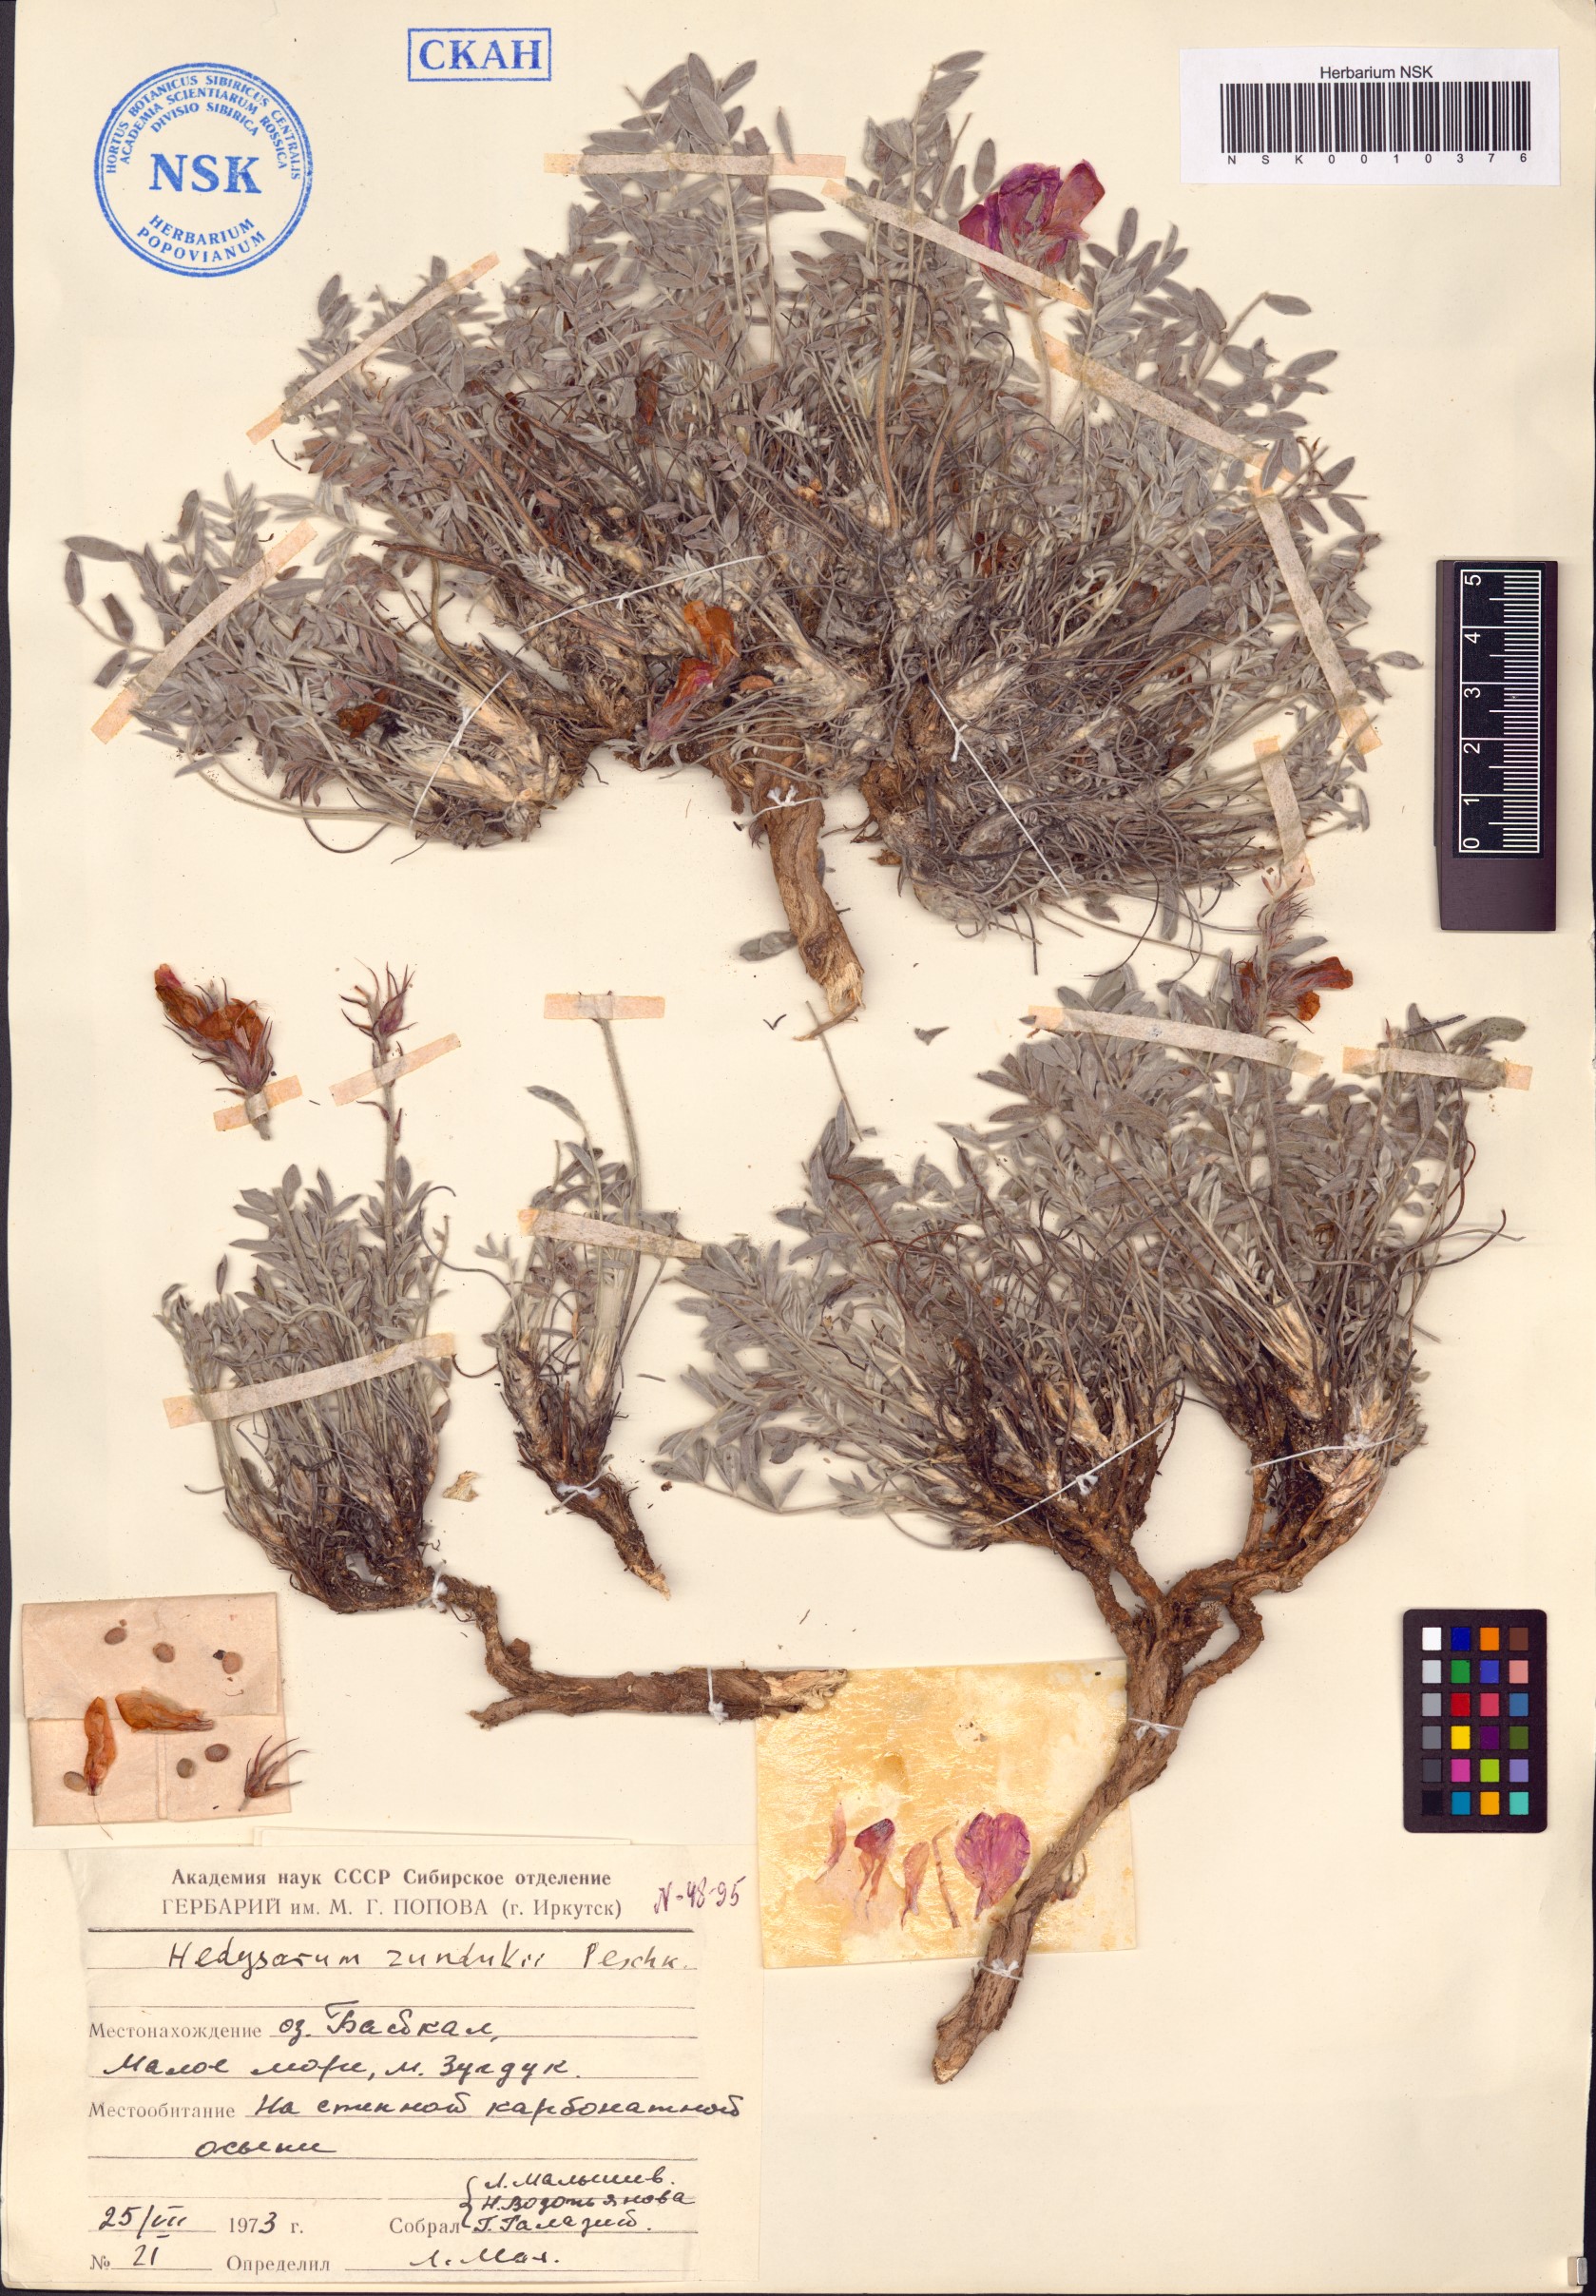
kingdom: Plantae
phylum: Tracheophyta
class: Magnoliopsida
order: Fabales
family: Fabaceae
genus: Hedysarum
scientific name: Hedysarum zundukii
